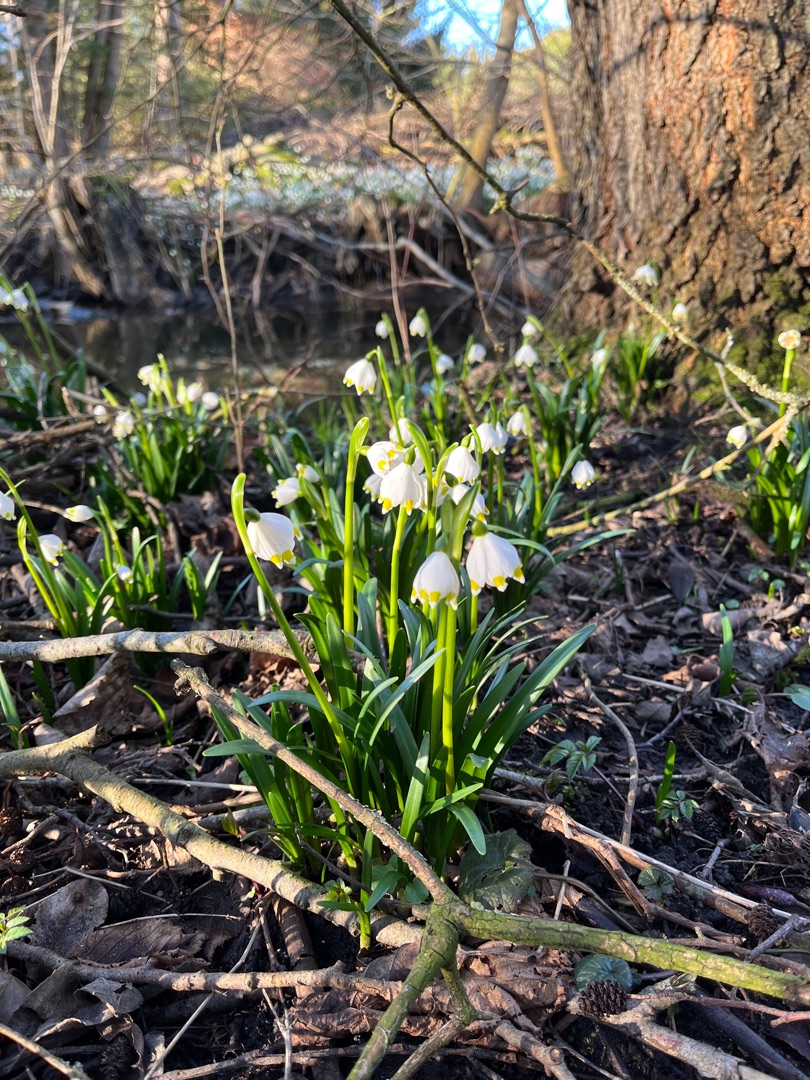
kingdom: Plantae
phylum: Tracheophyta
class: Liliopsida
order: Asparagales
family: Amaryllidaceae
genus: Leucojum
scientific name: Leucojum vernum
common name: Dorthealilje
